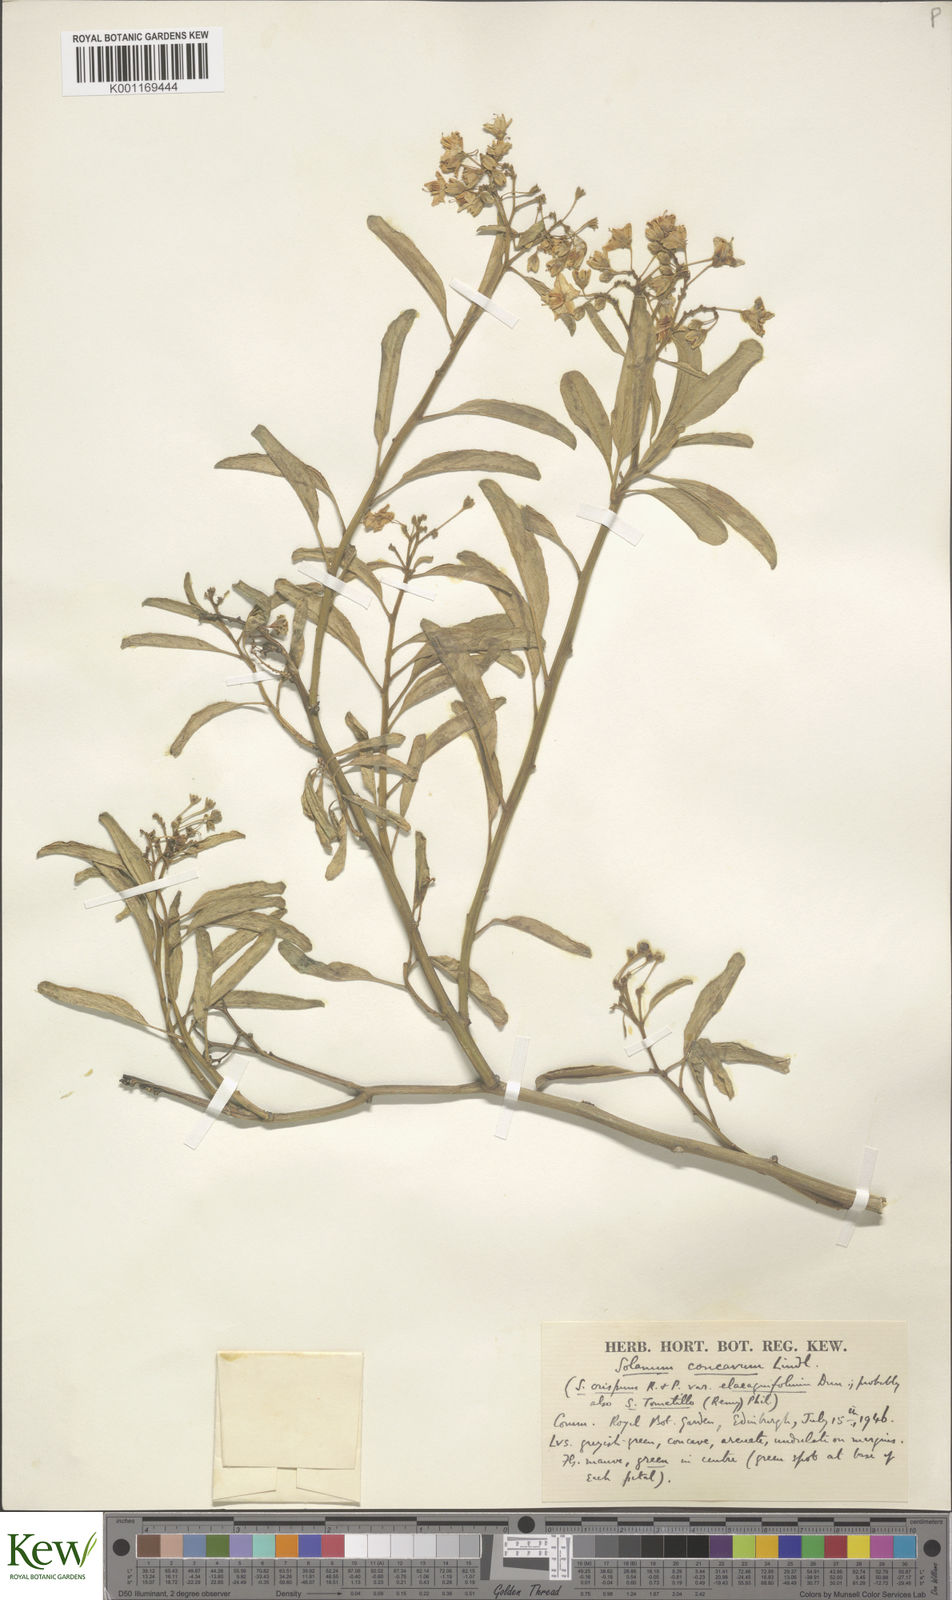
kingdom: Plantae
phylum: Tracheophyta
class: Magnoliopsida
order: Solanales
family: Solanaceae
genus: Solanum
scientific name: Solanum crispum
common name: Chilean nightshade
